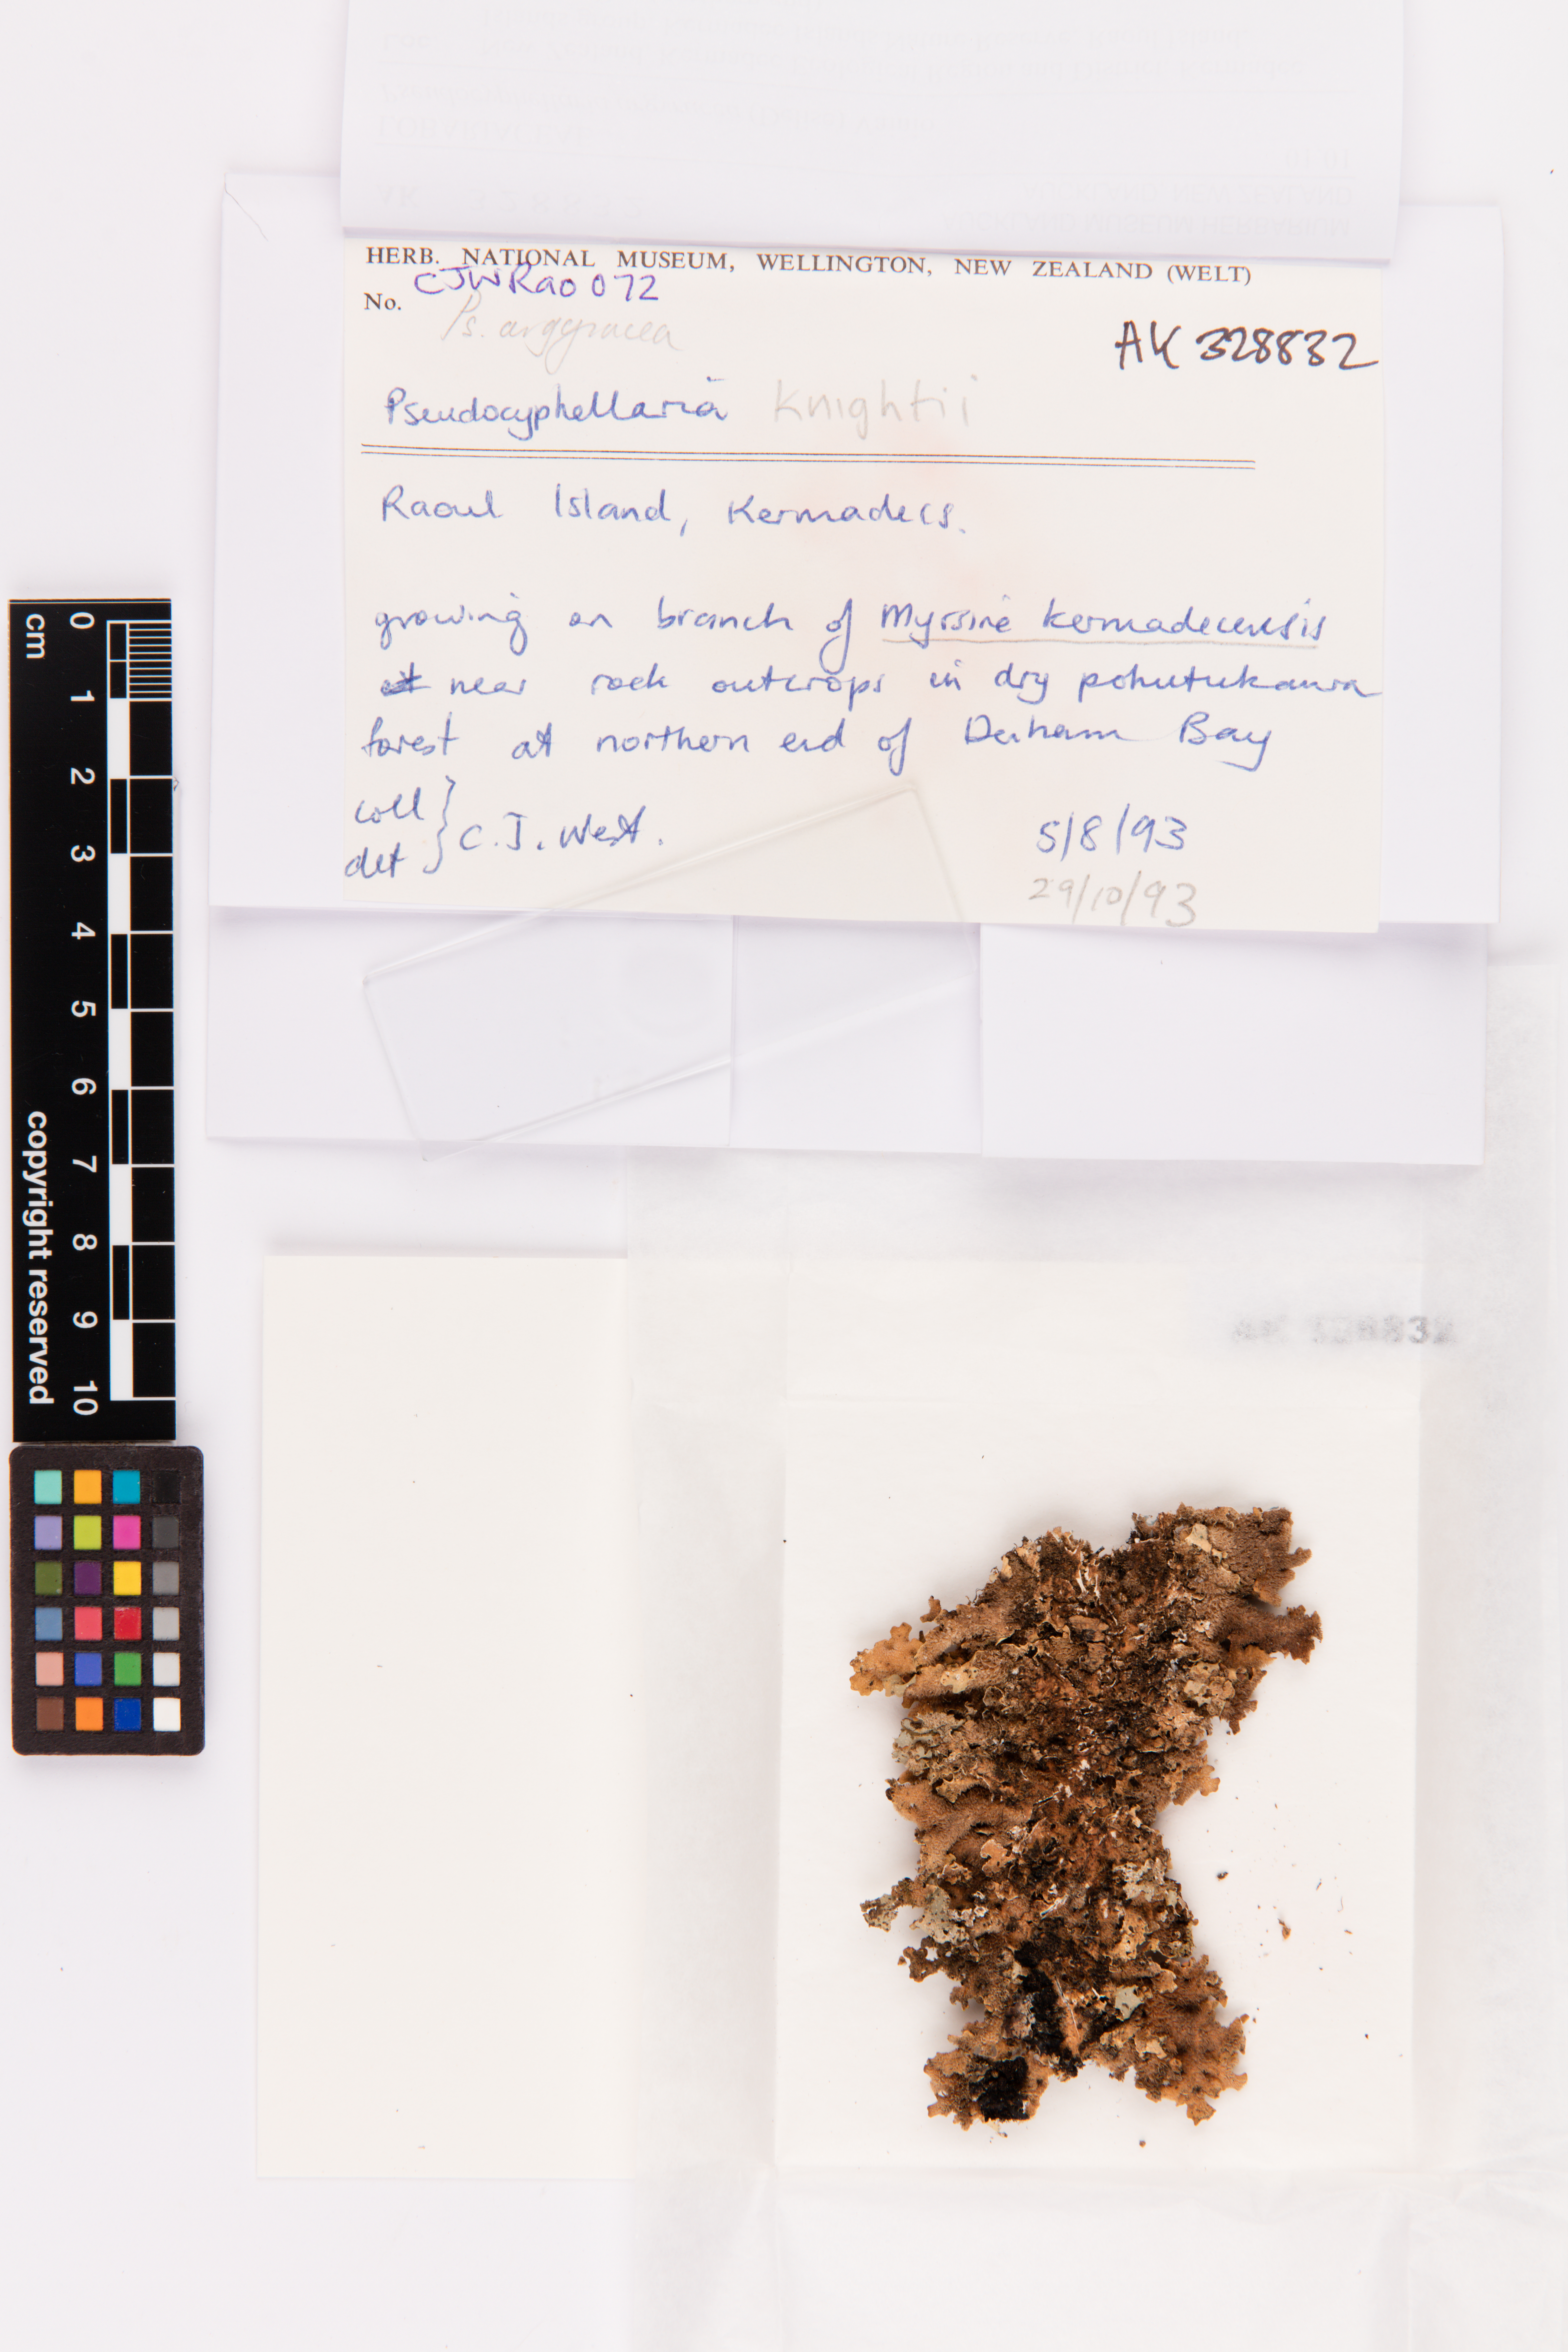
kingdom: Fungi
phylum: Ascomycota
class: Lecanoromycetes
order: Peltigerales
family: Lobariaceae
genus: Pseudocyphellaria
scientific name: Pseudocyphellaria argyracea
